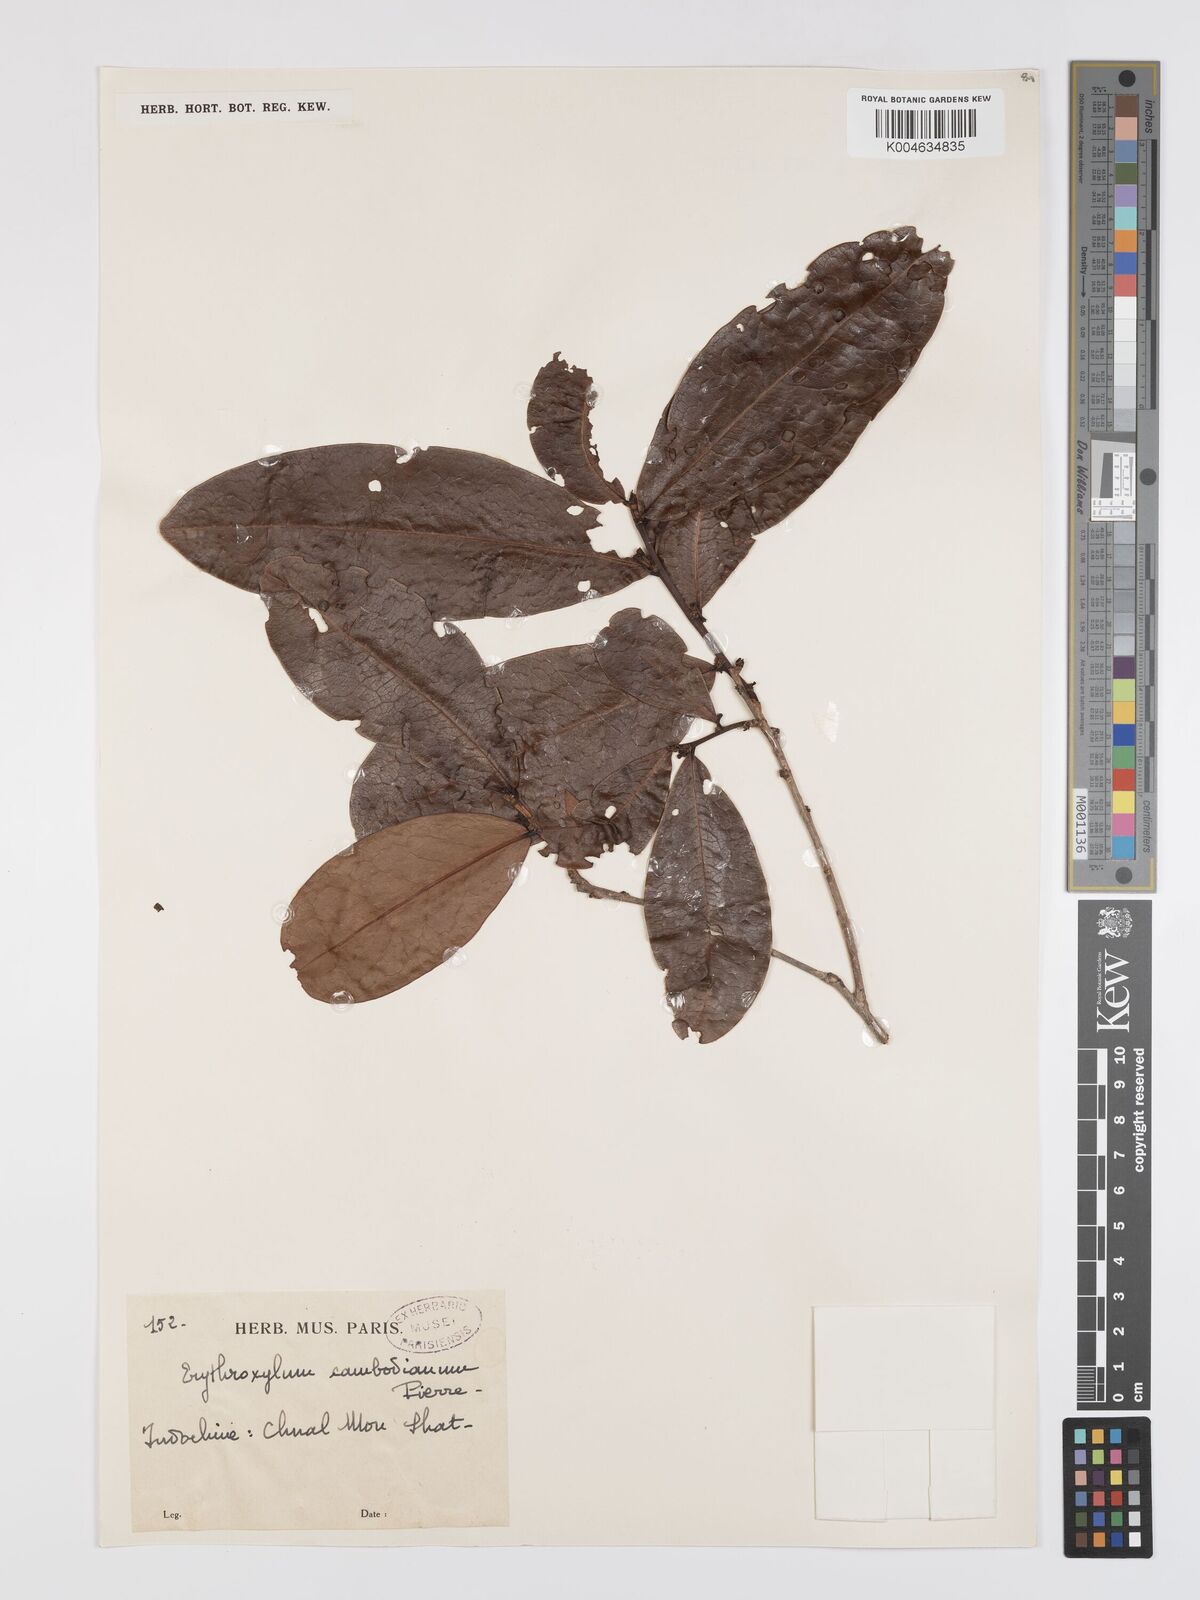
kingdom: Plantae
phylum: Tracheophyta
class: Magnoliopsida
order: Malpighiales
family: Erythroxylaceae
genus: Erythroxylum
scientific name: Erythroxylum cambodianum
